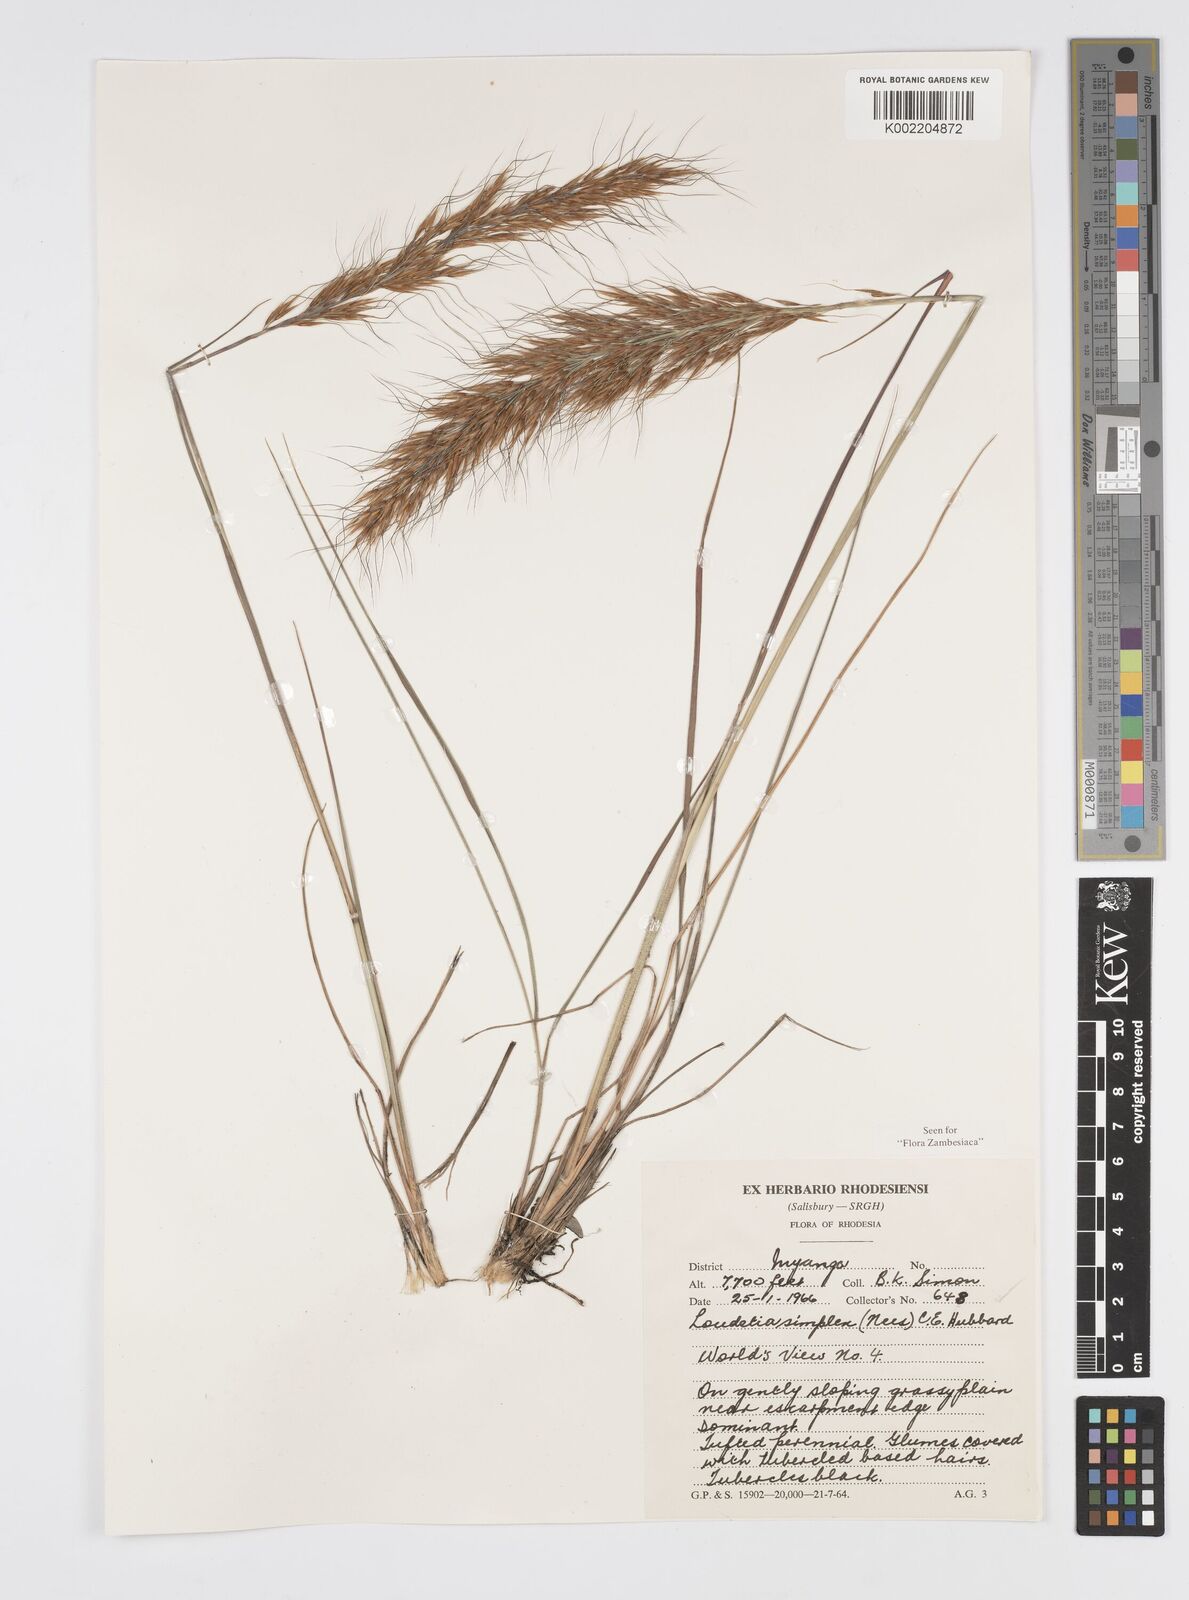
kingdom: Plantae
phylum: Tracheophyta
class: Liliopsida
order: Poales
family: Poaceae
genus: Loudetia
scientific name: Loudetia simplex
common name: Common russet grass
